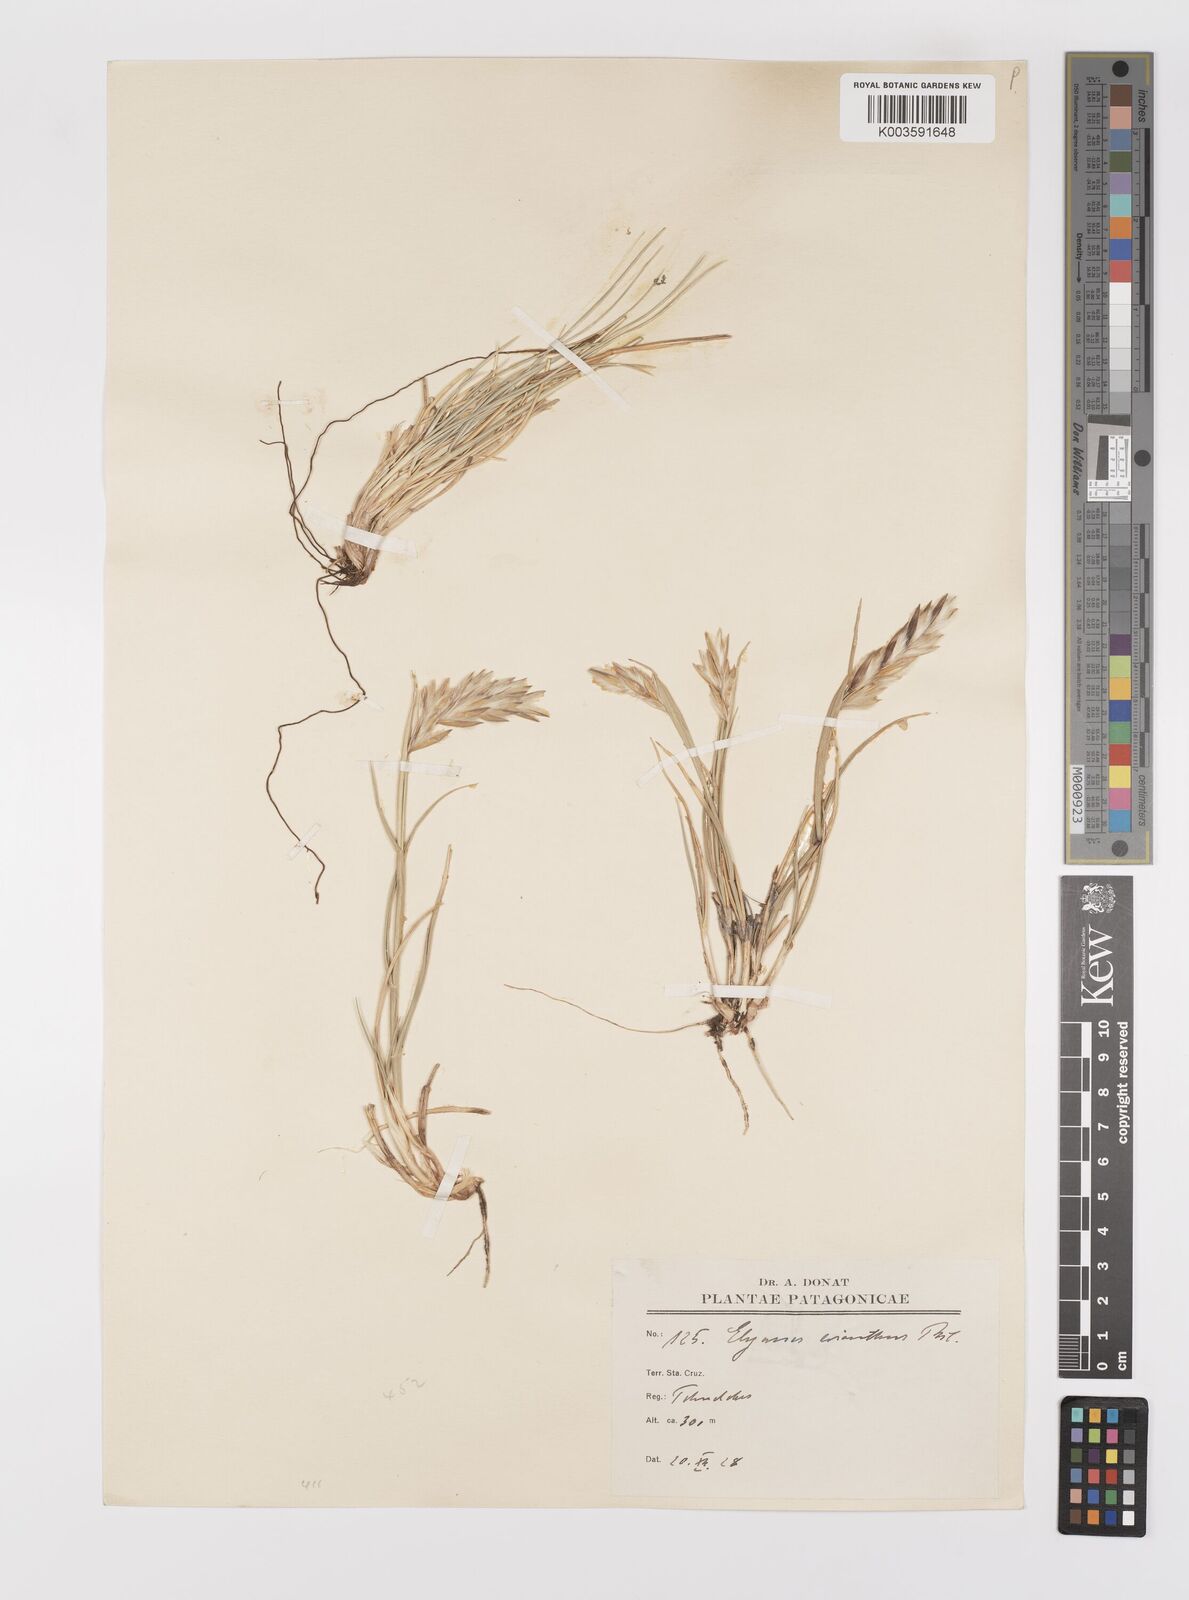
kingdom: Plantae
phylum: Tracheophyta
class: Liliopsida
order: Poales
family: Poaceae
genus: Leymus
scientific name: Leymus erianthus
